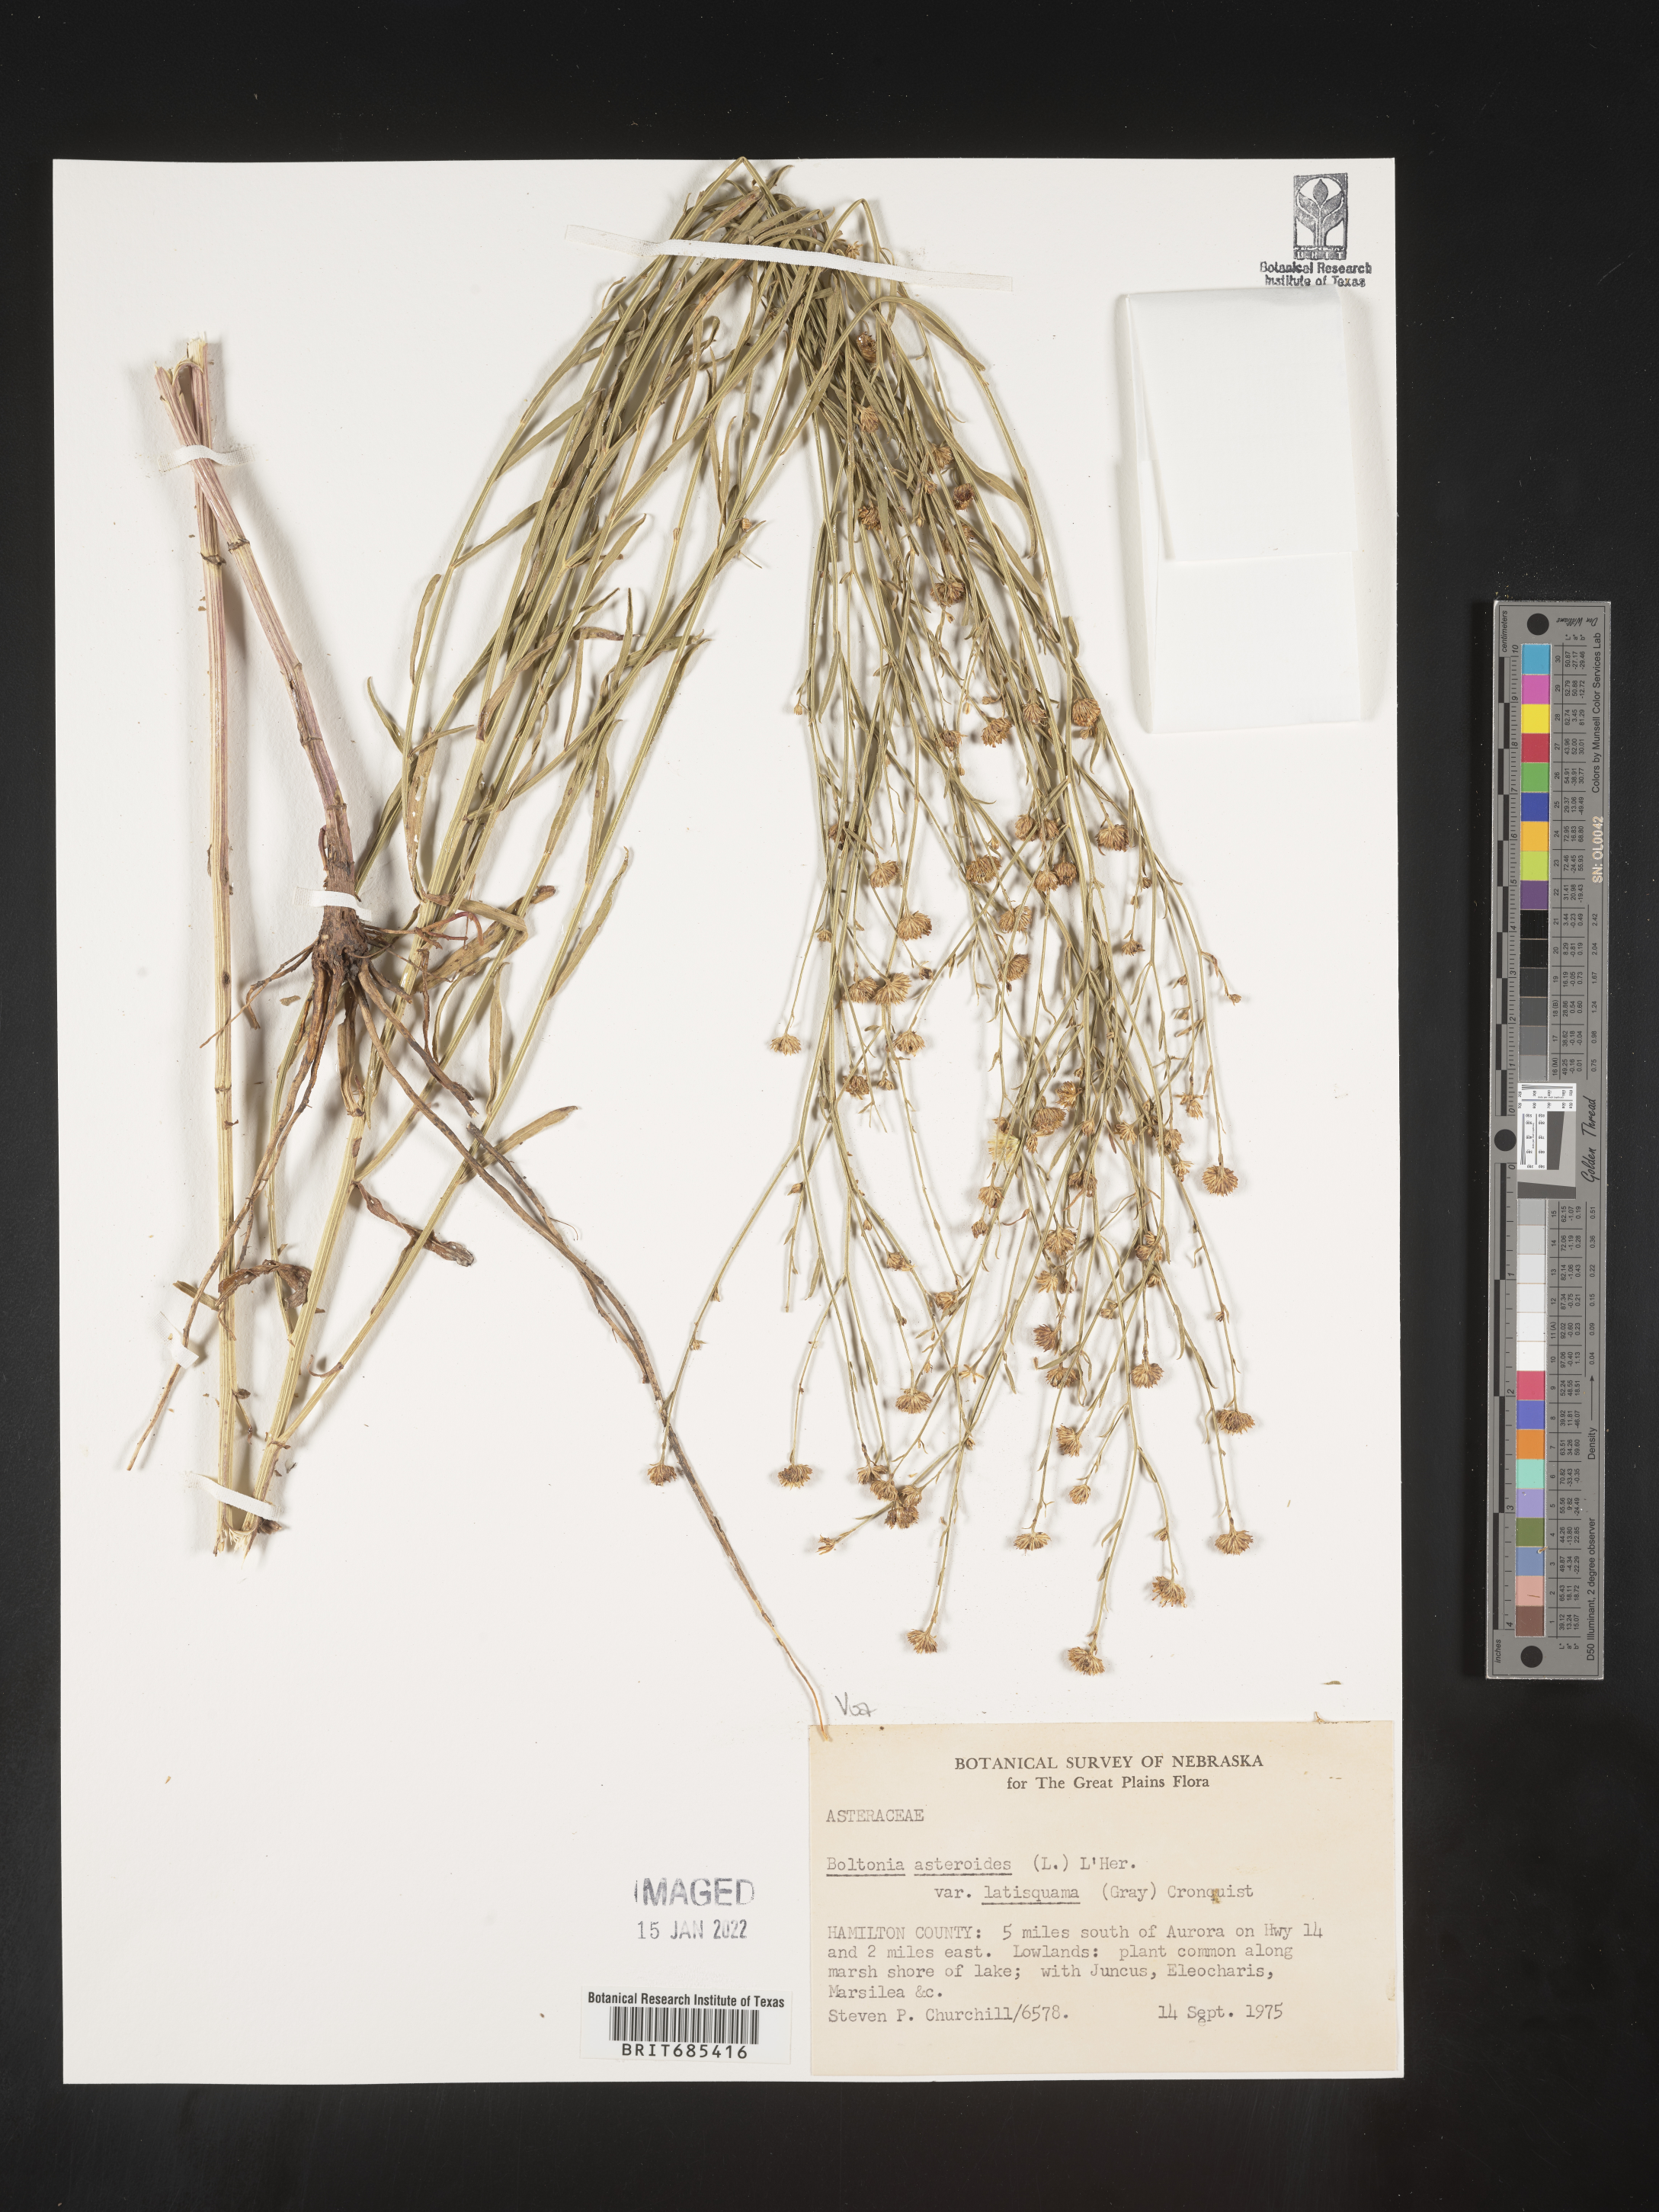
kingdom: Plantae
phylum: Tracheophyta
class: Magnoliopsida
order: Asterales
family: Asteraceae
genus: Boltonia
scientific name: Boltonia asteroides
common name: False chamomile
